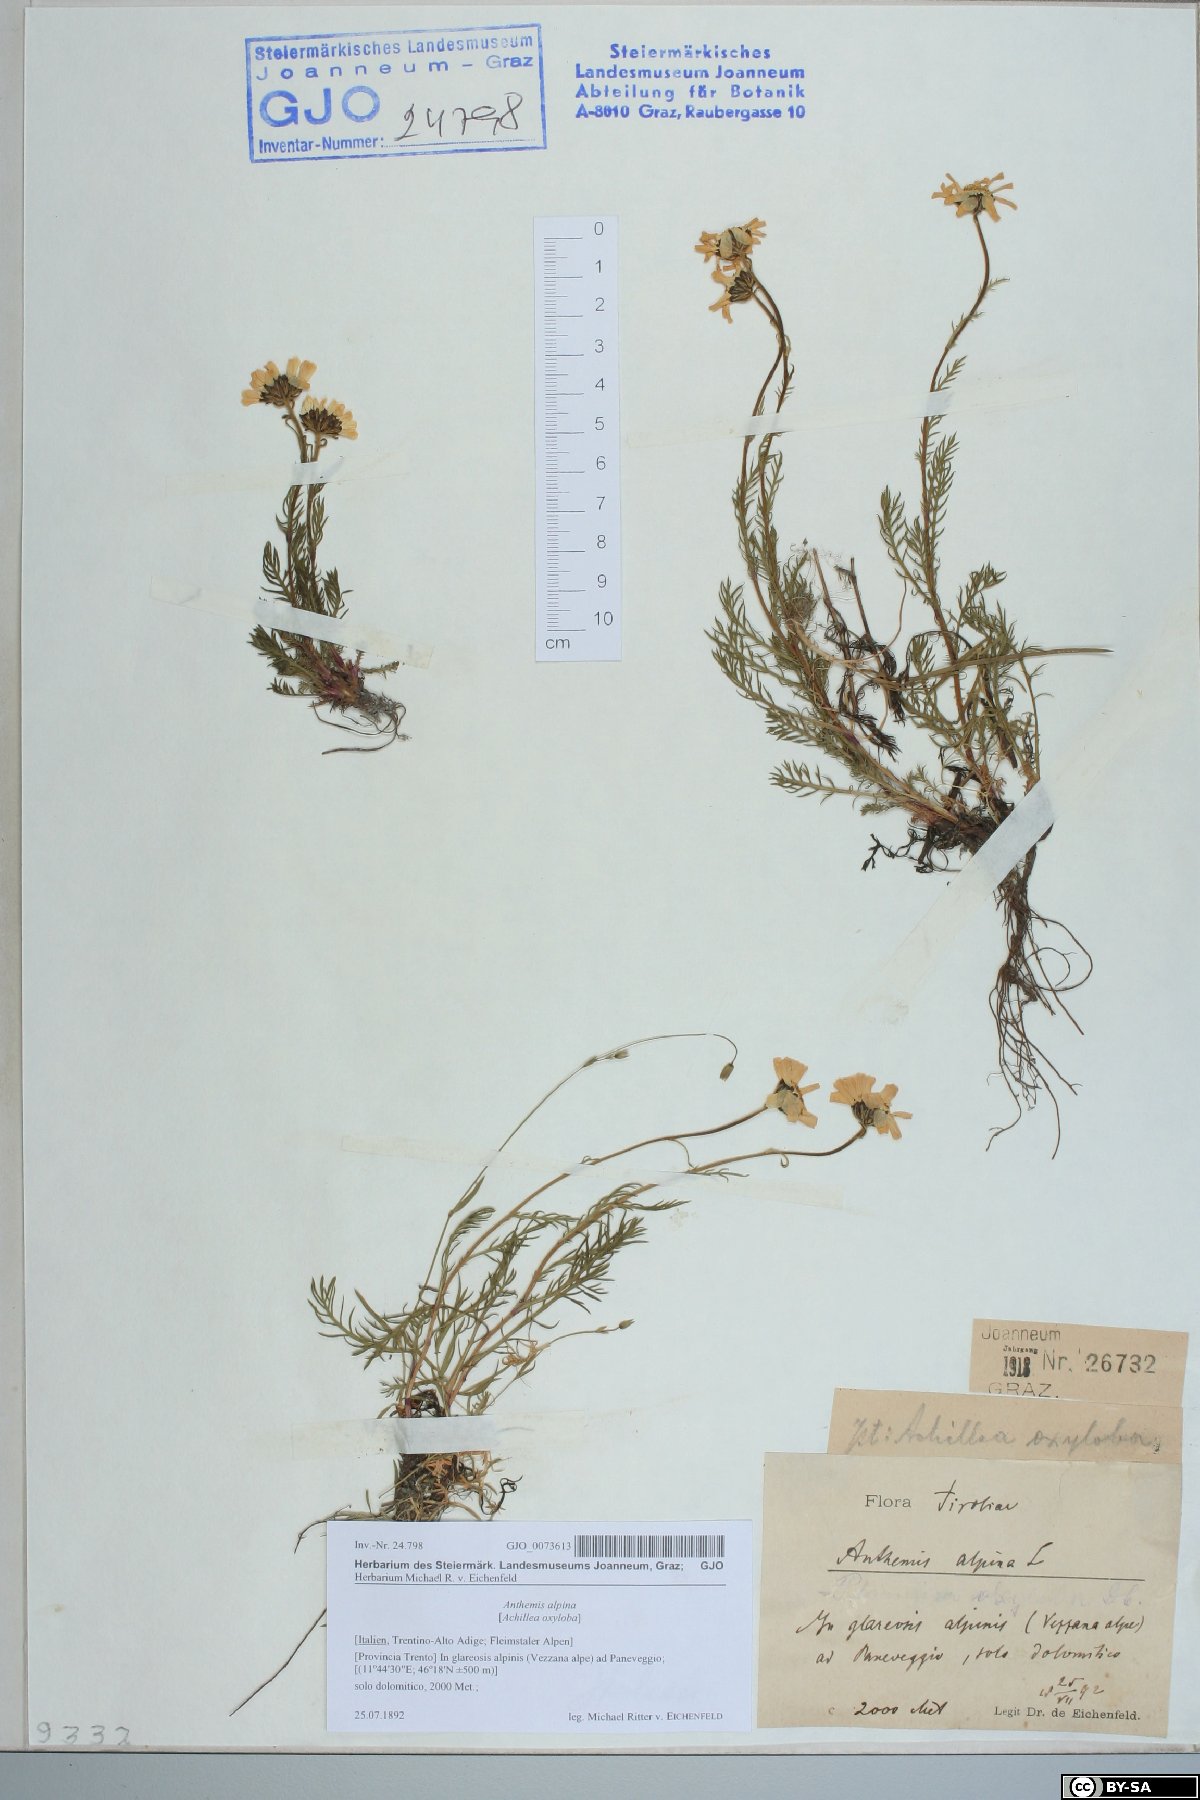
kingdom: Plantae
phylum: Tracheophyta
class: Magnoliopsida
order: Asterales
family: Asteraceae
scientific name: Asteraceae
